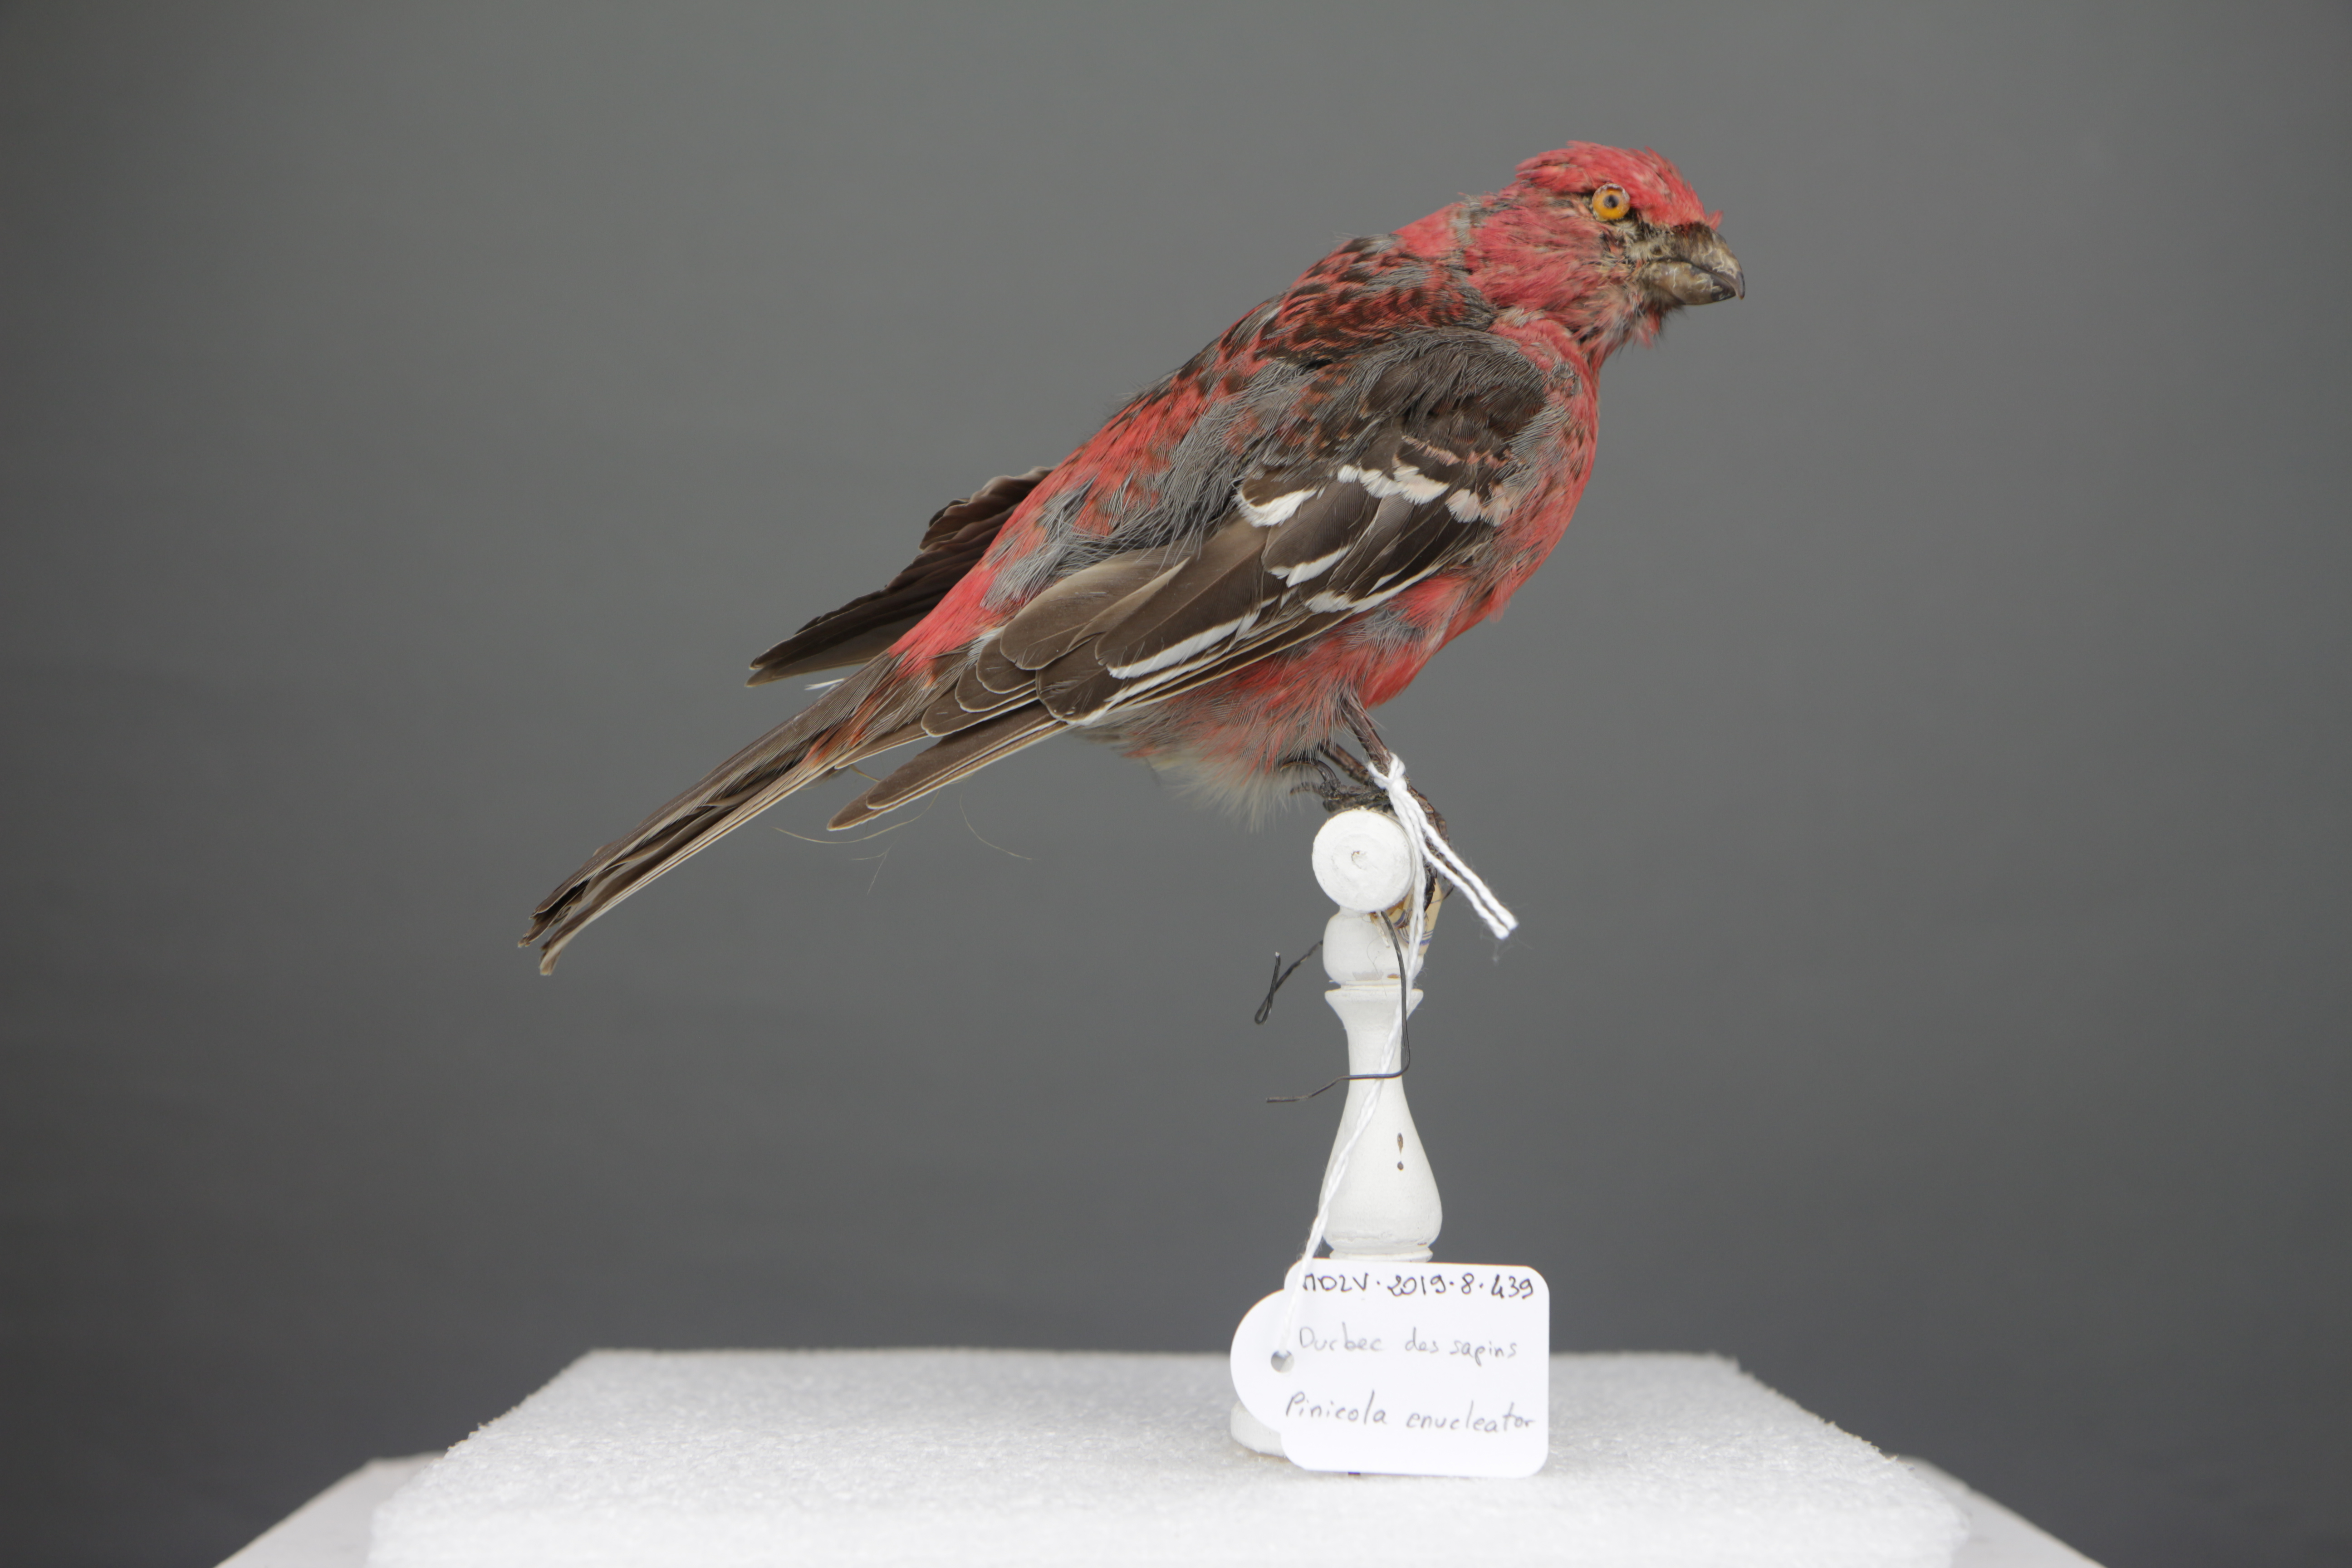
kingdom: Animalia
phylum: Chordata
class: Aves
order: Passeriformes
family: Fringillidae
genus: Pinicola
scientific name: Pinicola enucleator
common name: Pine grosbeak
